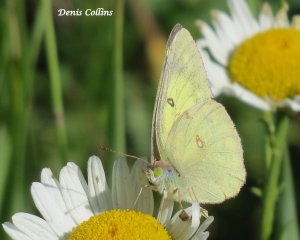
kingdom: Animalia
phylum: Arthropoda
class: Insecta
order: Lepidoptera
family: Pieridae
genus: Colias
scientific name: Colias philodice
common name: Clouded Sulphur
